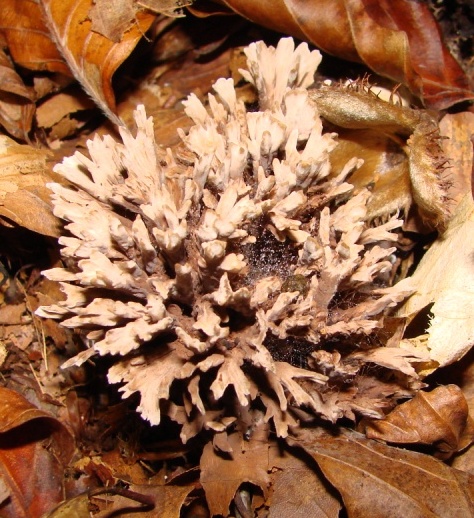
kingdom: Fungi
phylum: Basidiomycota
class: Agaricomycetes
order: Thelephorales
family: Thelephoraceae
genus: Thelephora
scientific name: Thelephora anthocephala
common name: busk-frynsesvamp
